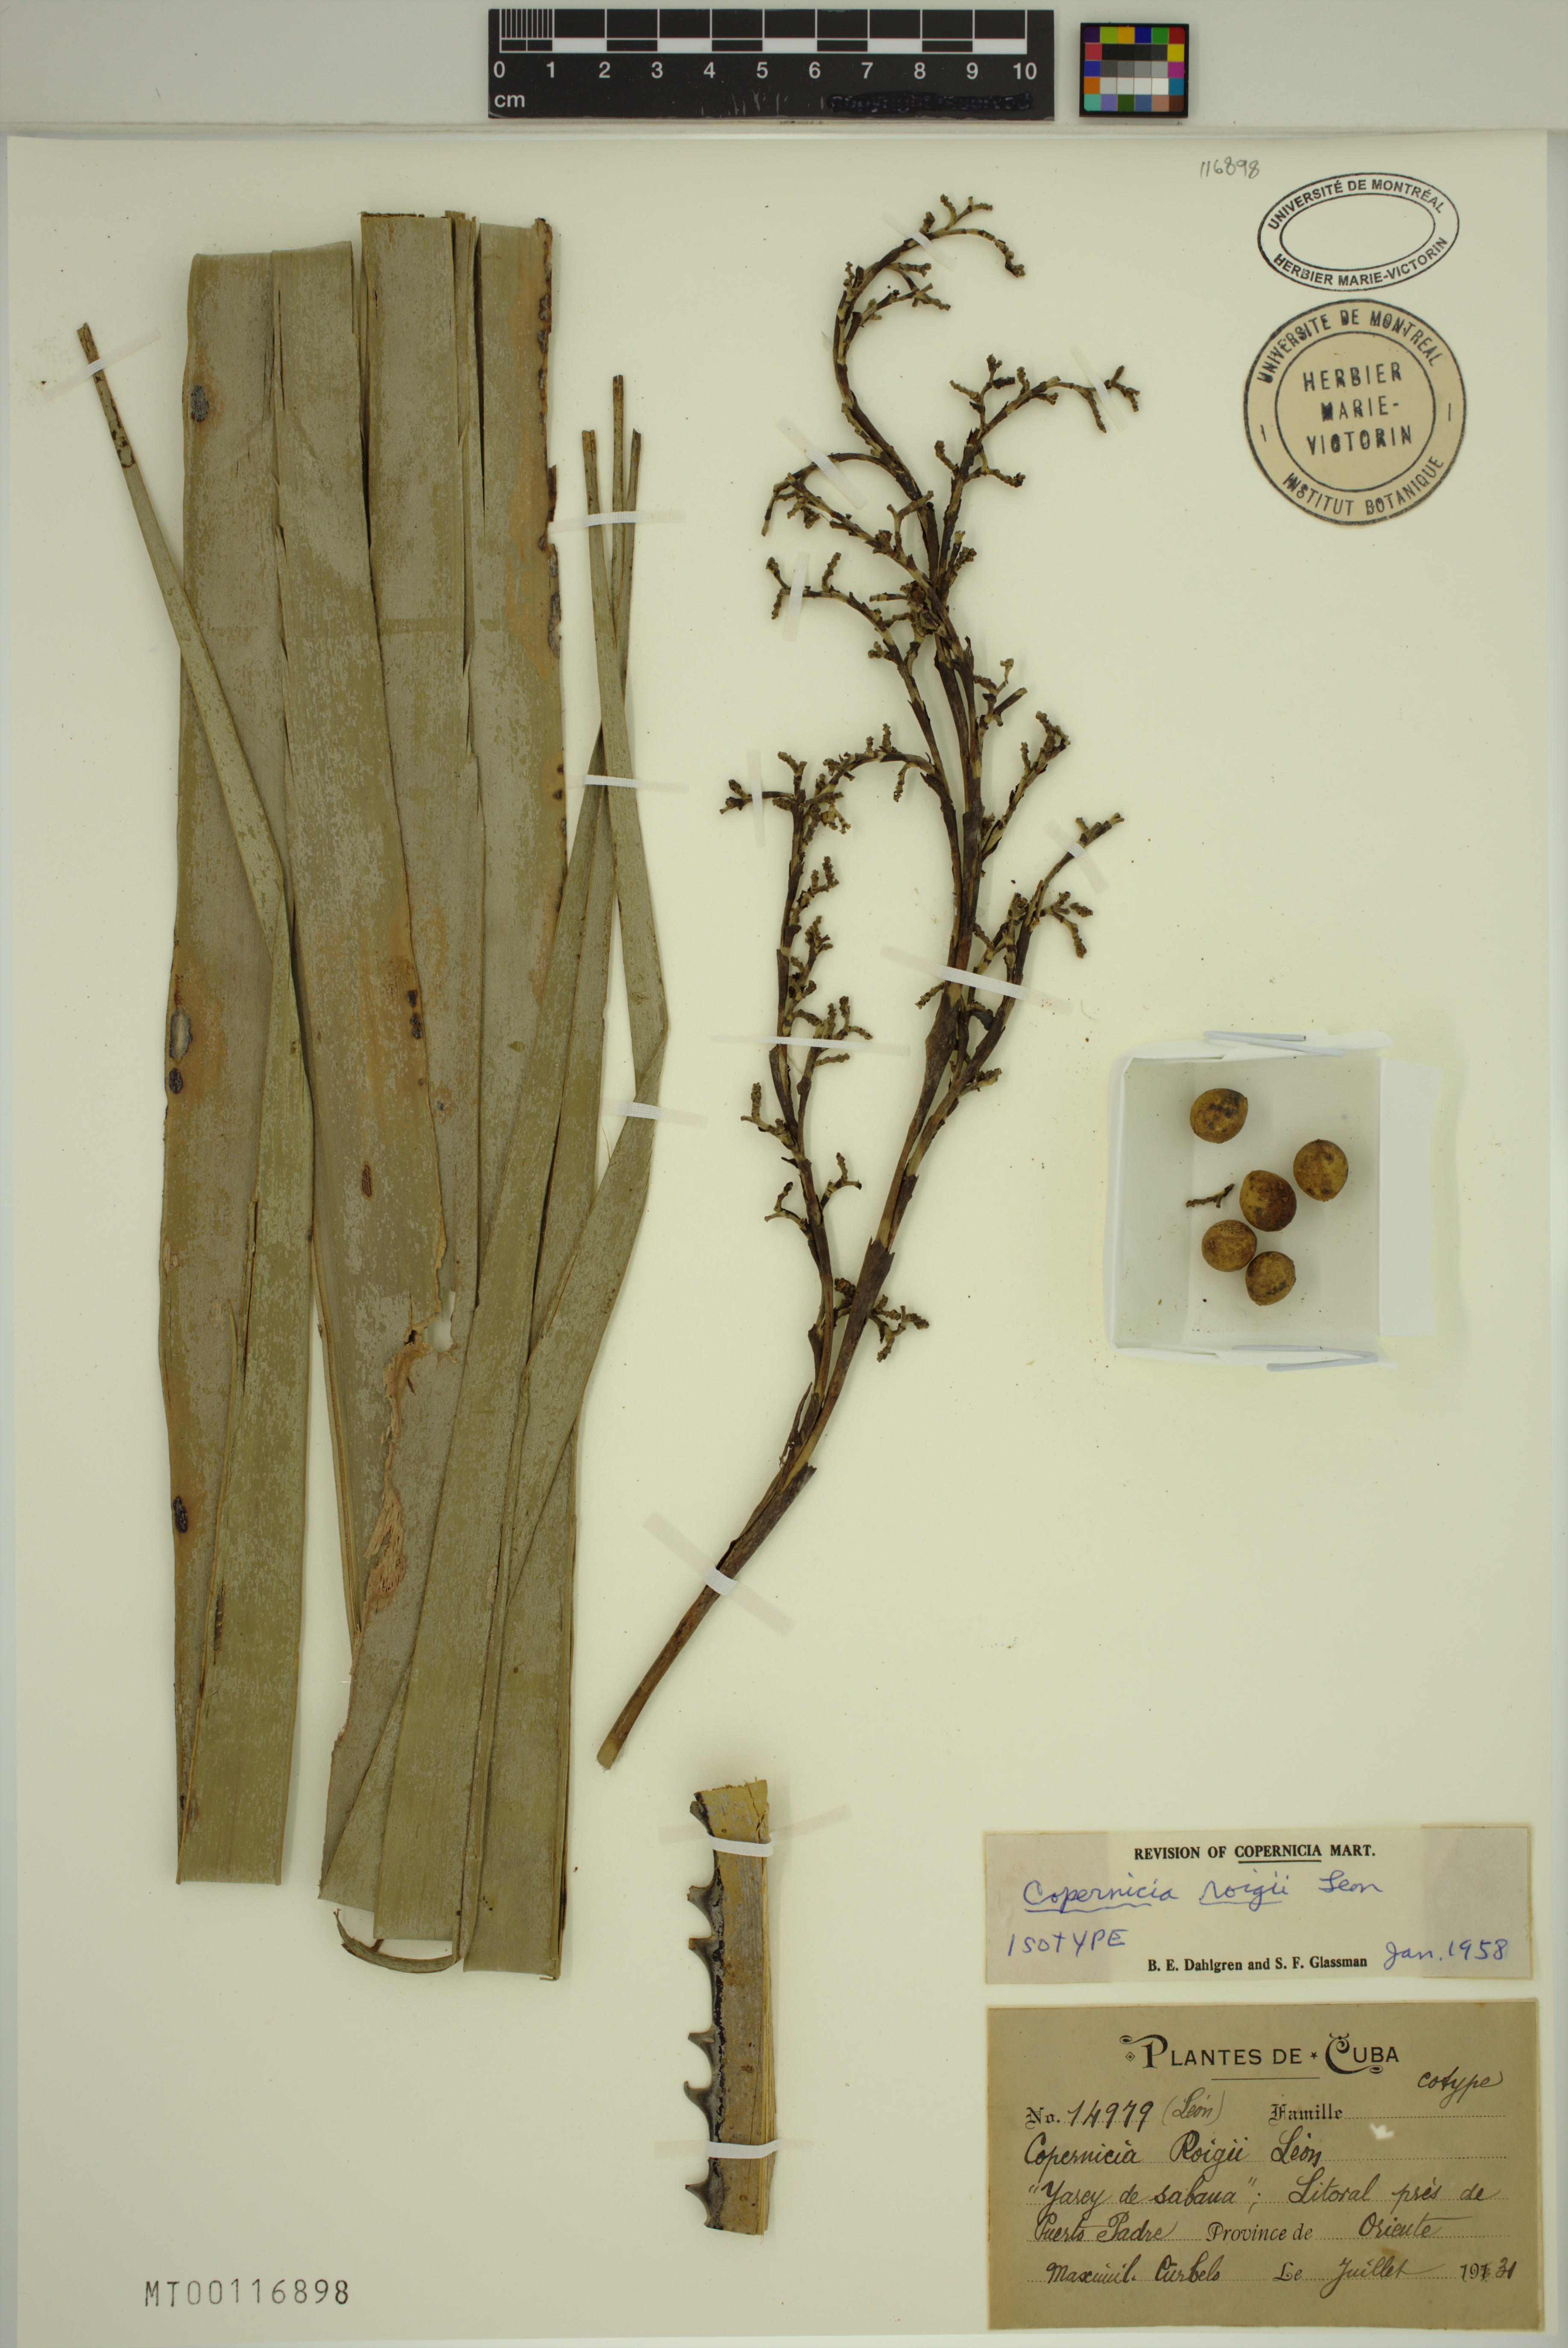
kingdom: Plantae
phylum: Tracheophyta
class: Liliopsida
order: Arecales
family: Arecaceae
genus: Copernicia
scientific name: Copernicia roigii
